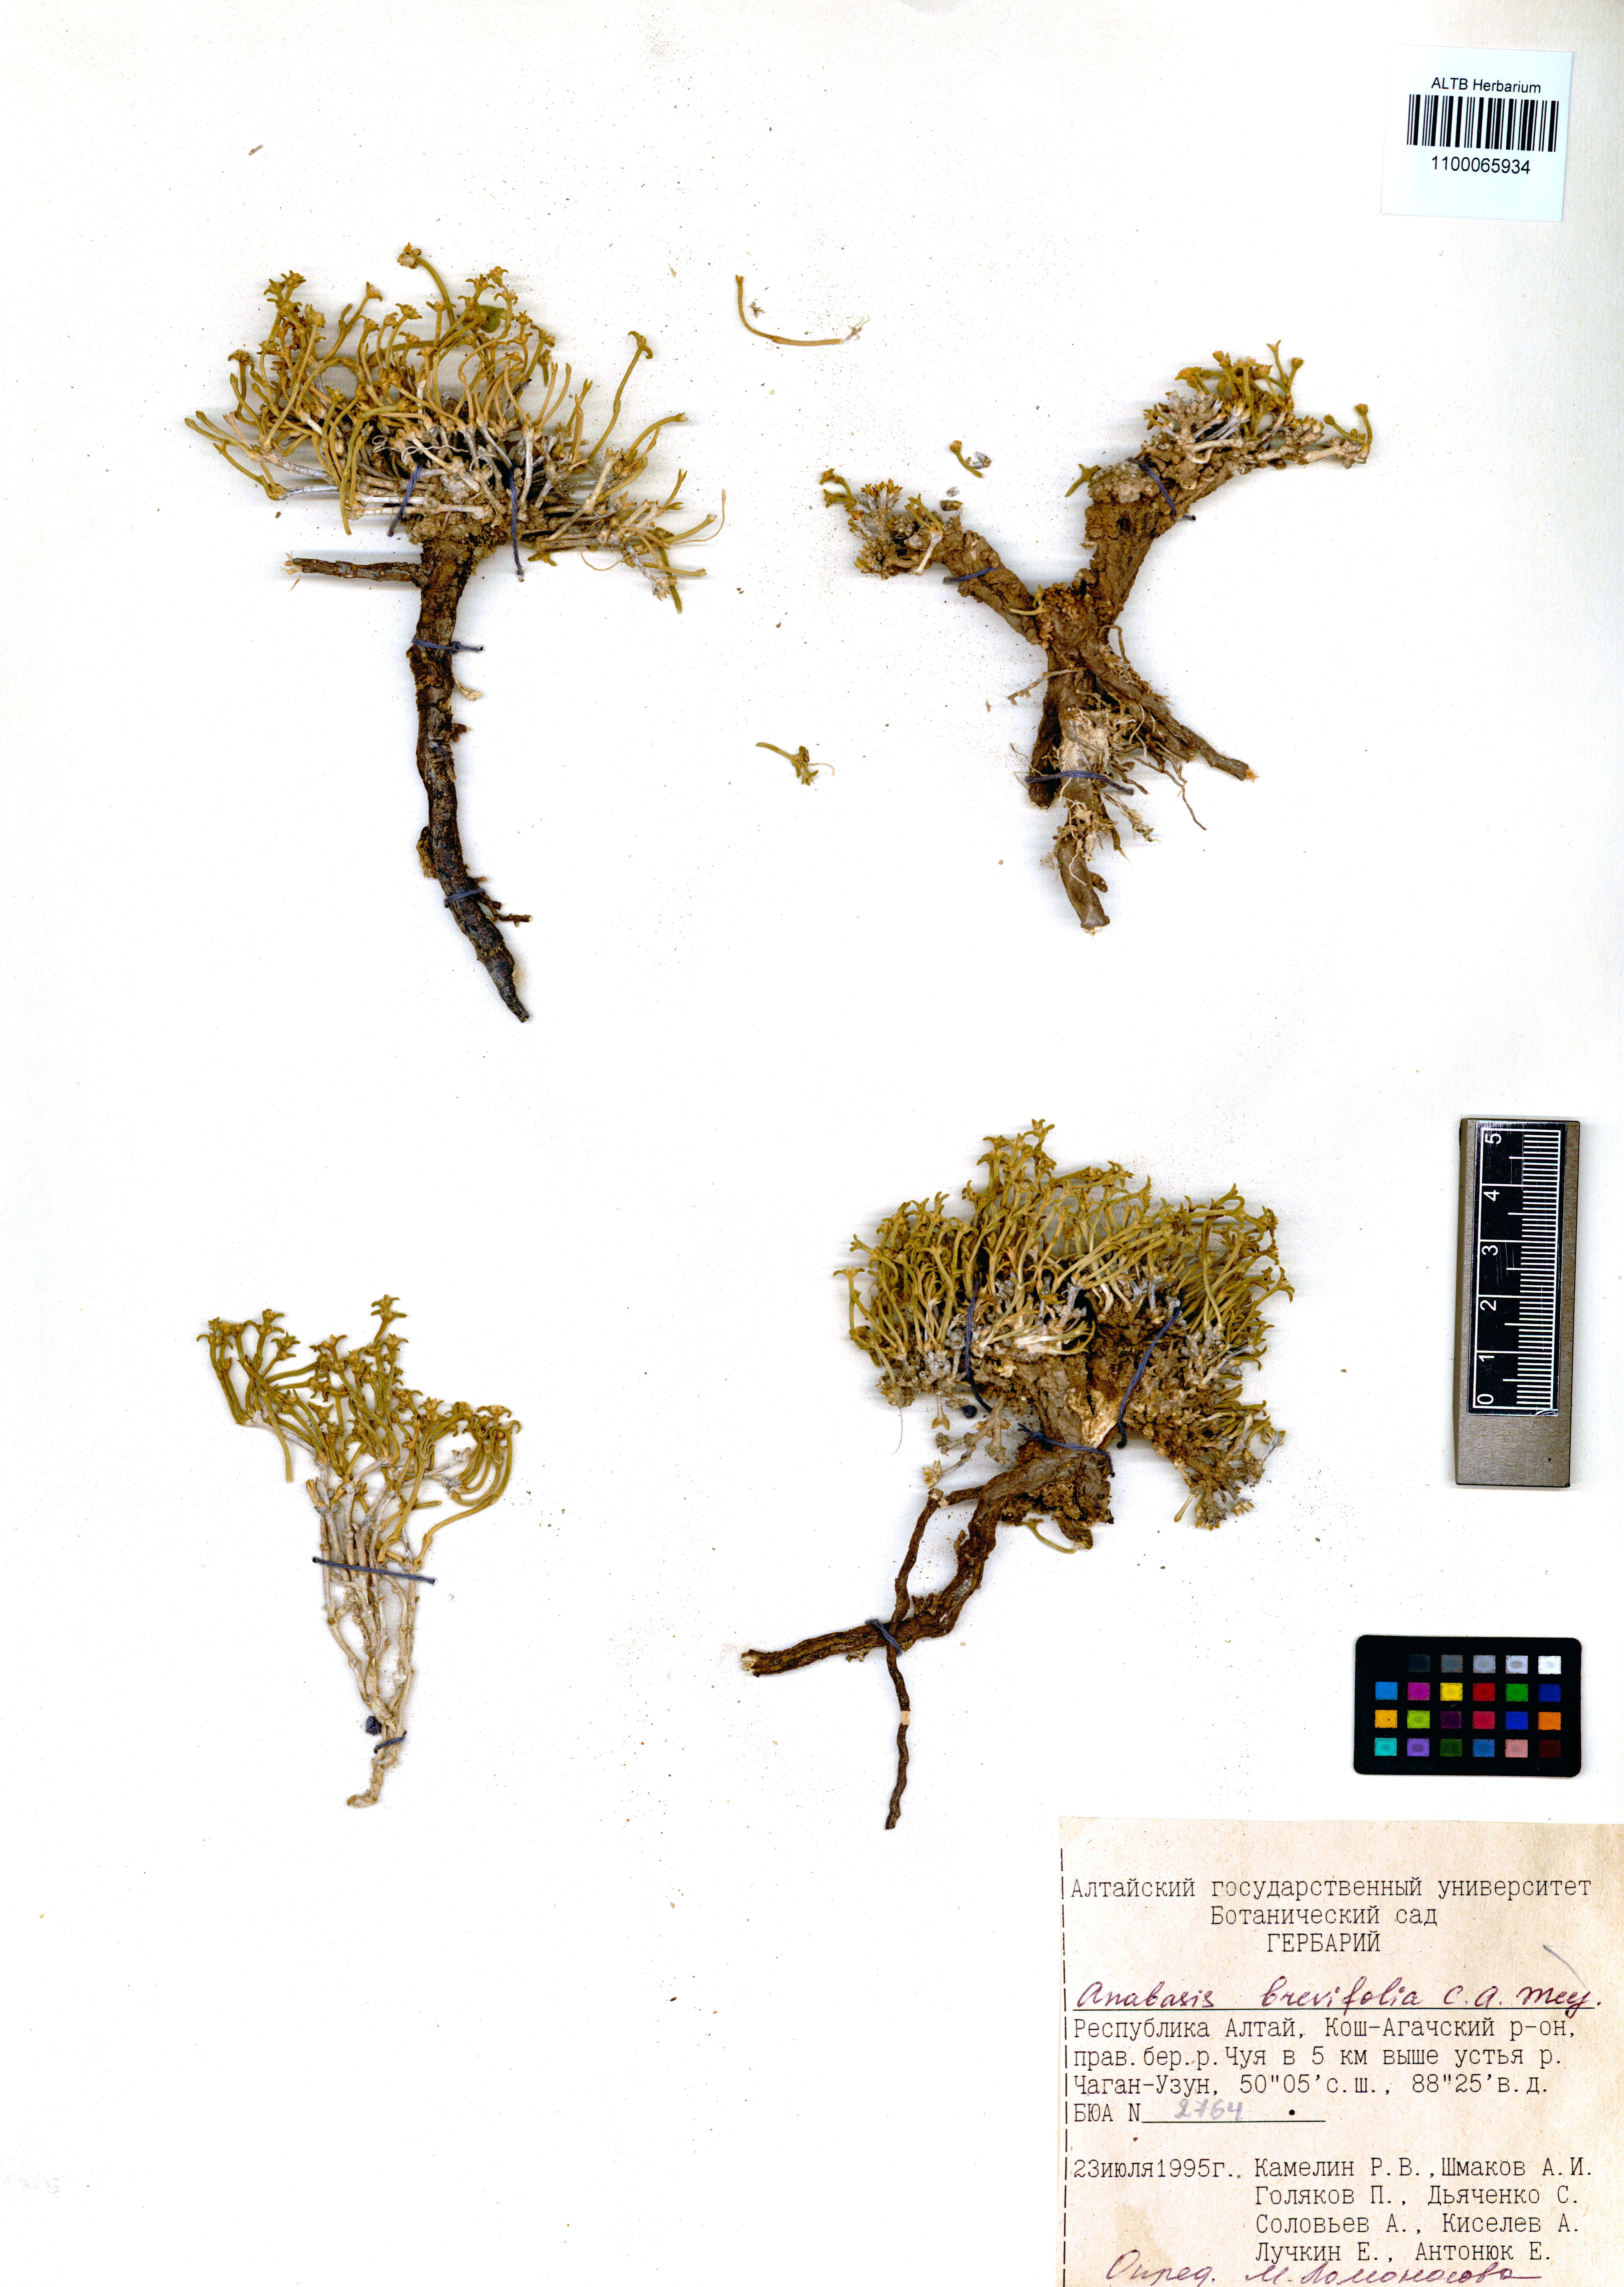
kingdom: Plantae
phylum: Tracheophyta
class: Magnoliopsida
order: Caryophyllales
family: Amaranthaceae
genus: Anabasis
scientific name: Anabasis brevifolia
